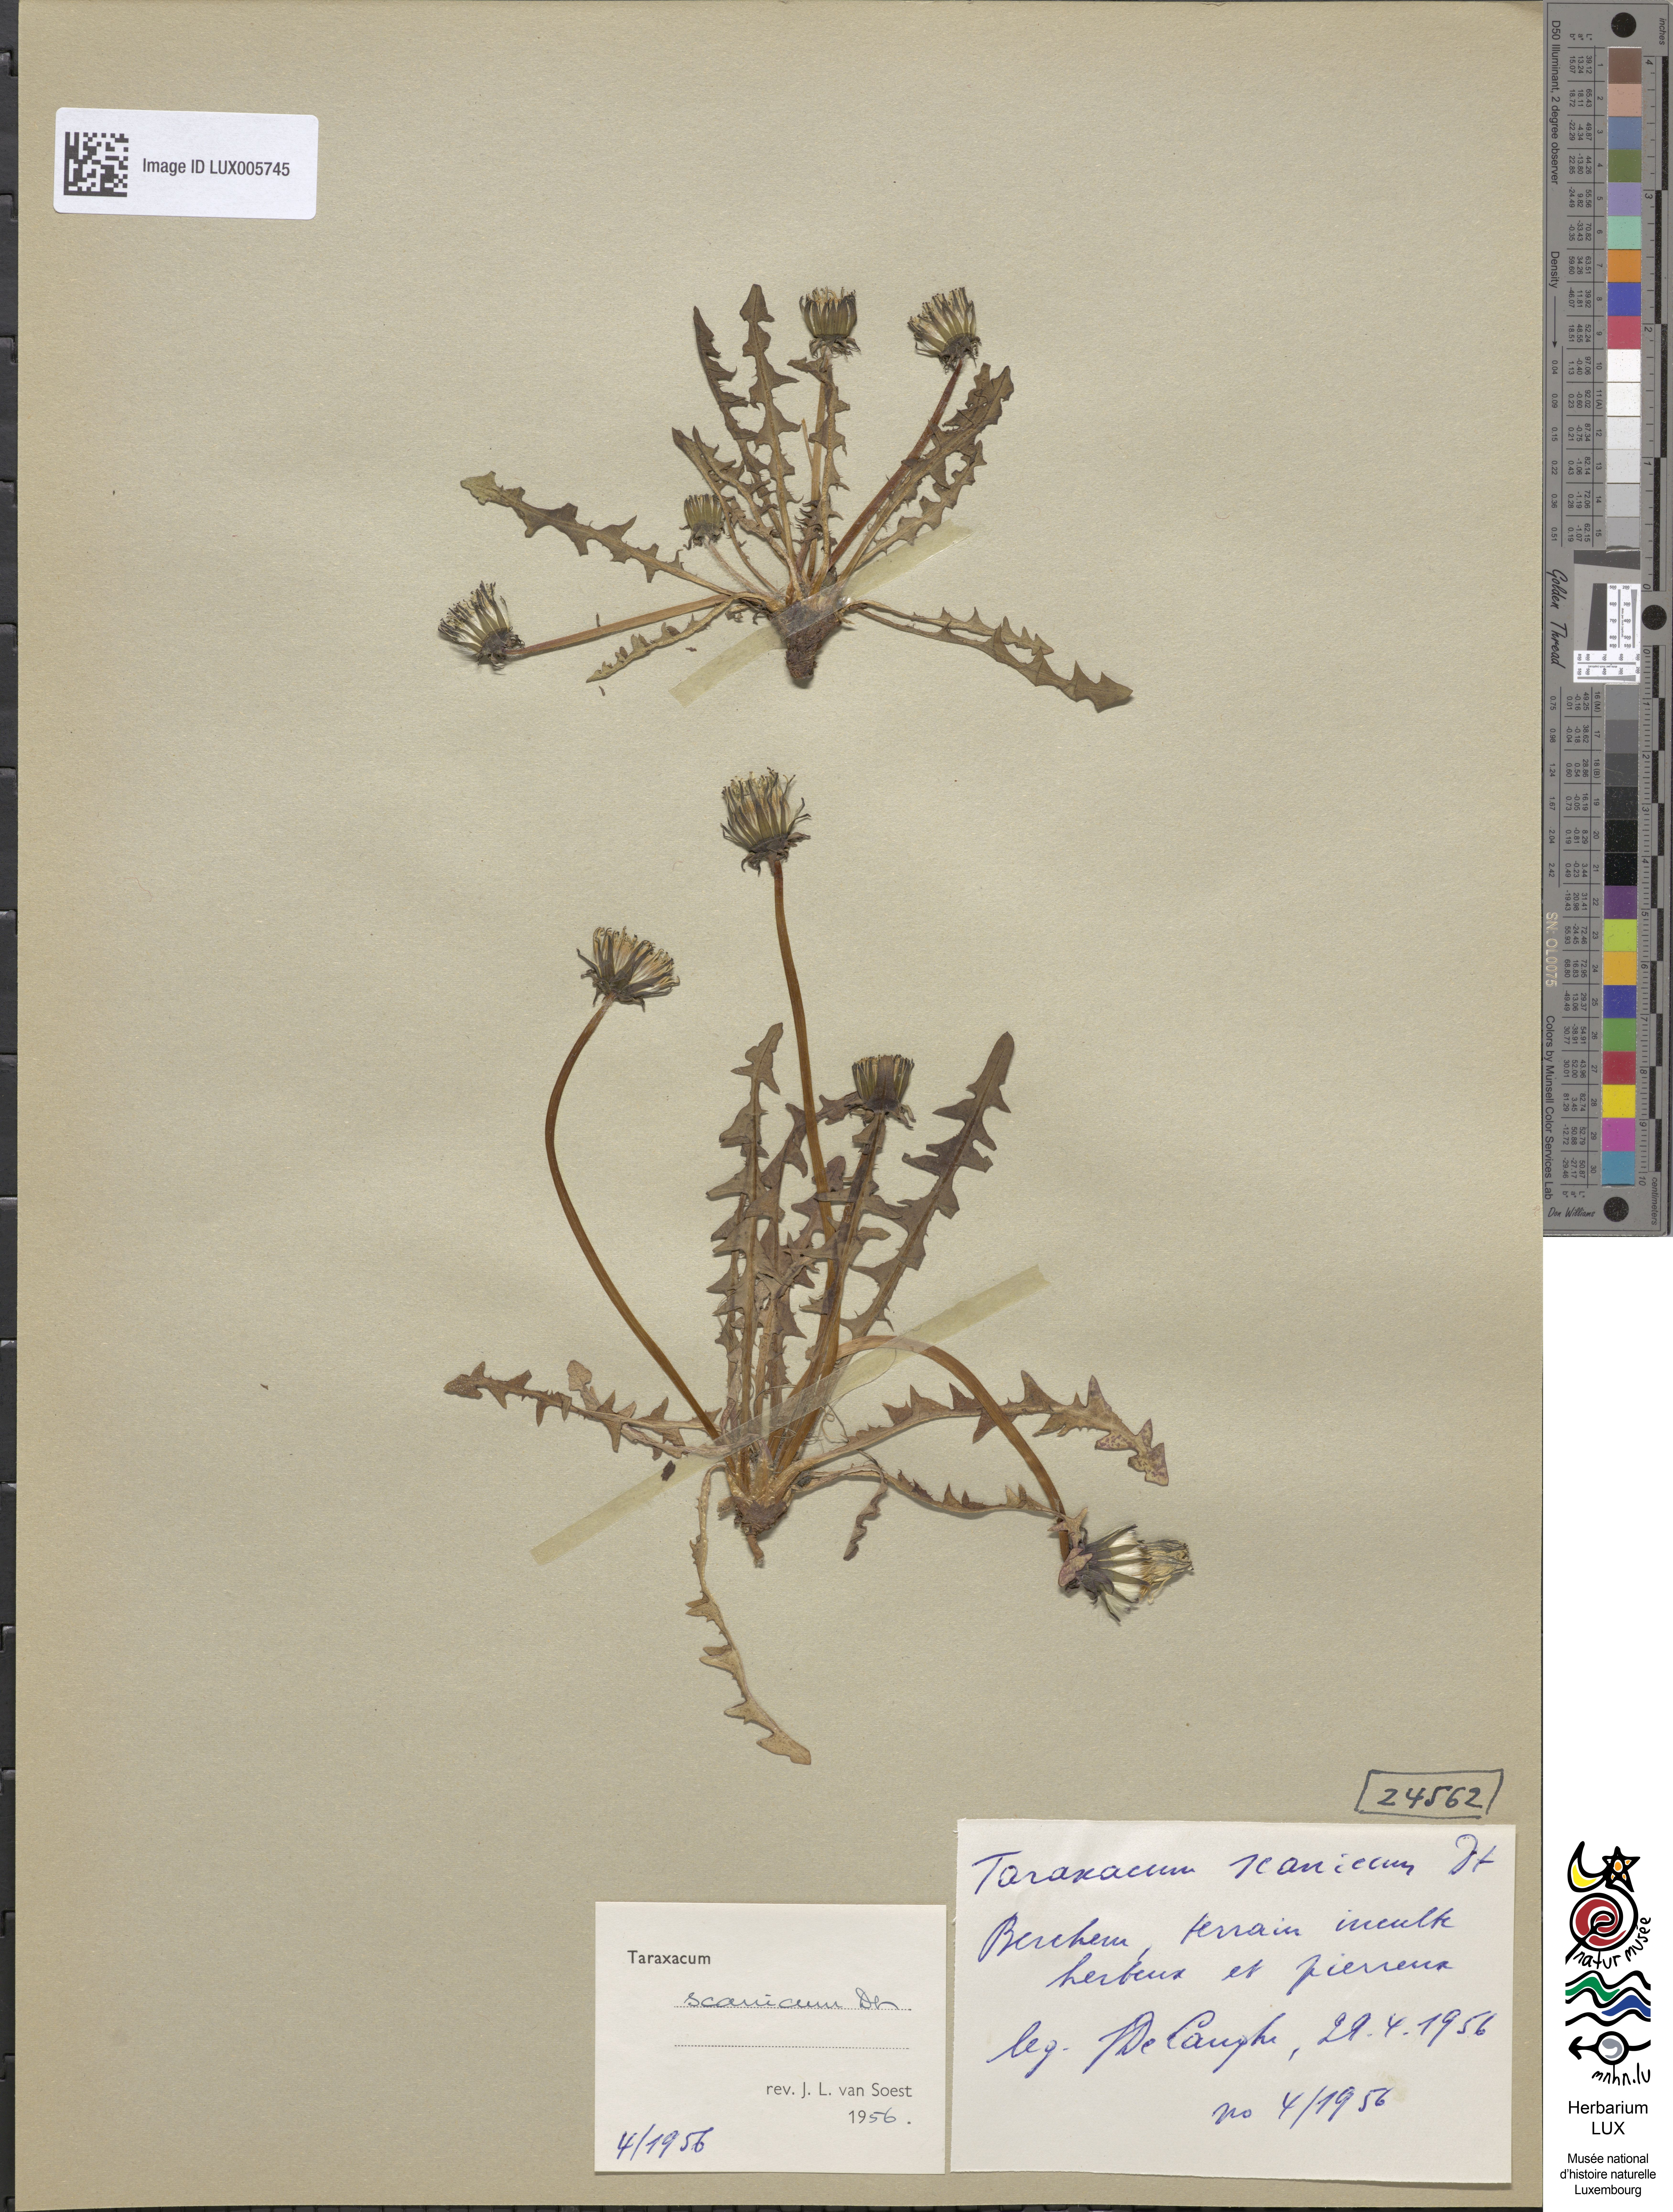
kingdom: Plantae
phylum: Tracheophyta
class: Magnoliopsida
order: Asterales
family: Asteraceae
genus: Taraxacum
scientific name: Taraxacum scanicum
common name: Skåne dandelion
